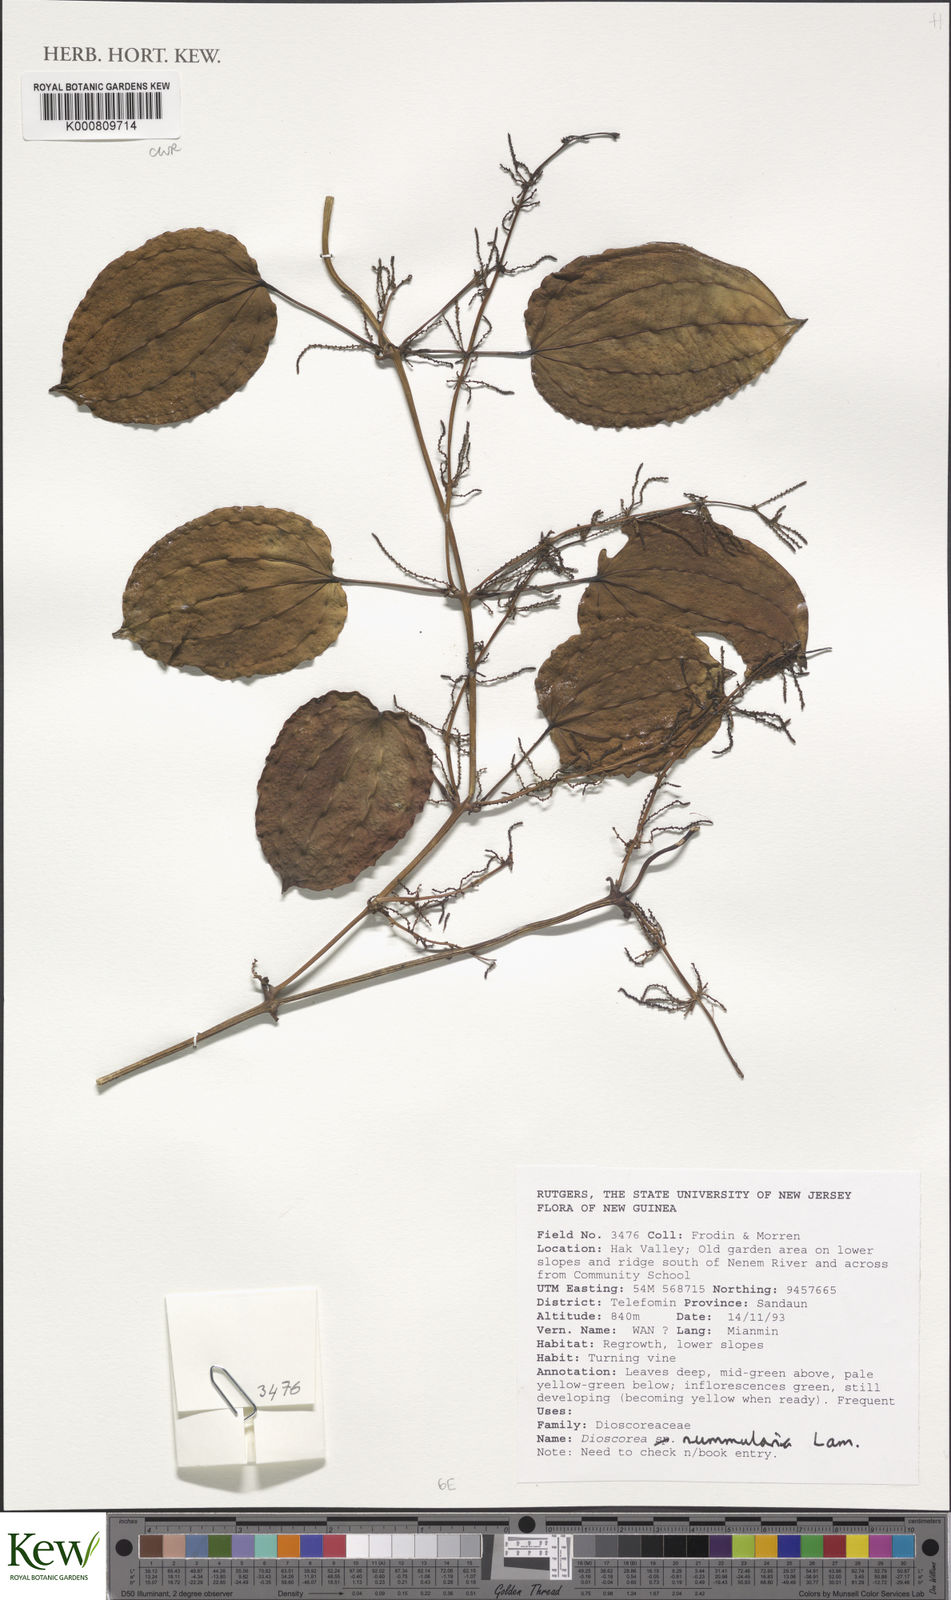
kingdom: Plantae
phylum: Tracheophyta
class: Liliopsida
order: Dioscoreales
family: Dioscoreaceae
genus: Dioscorea
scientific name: Dioscorea nummularia
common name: Pacific yam
